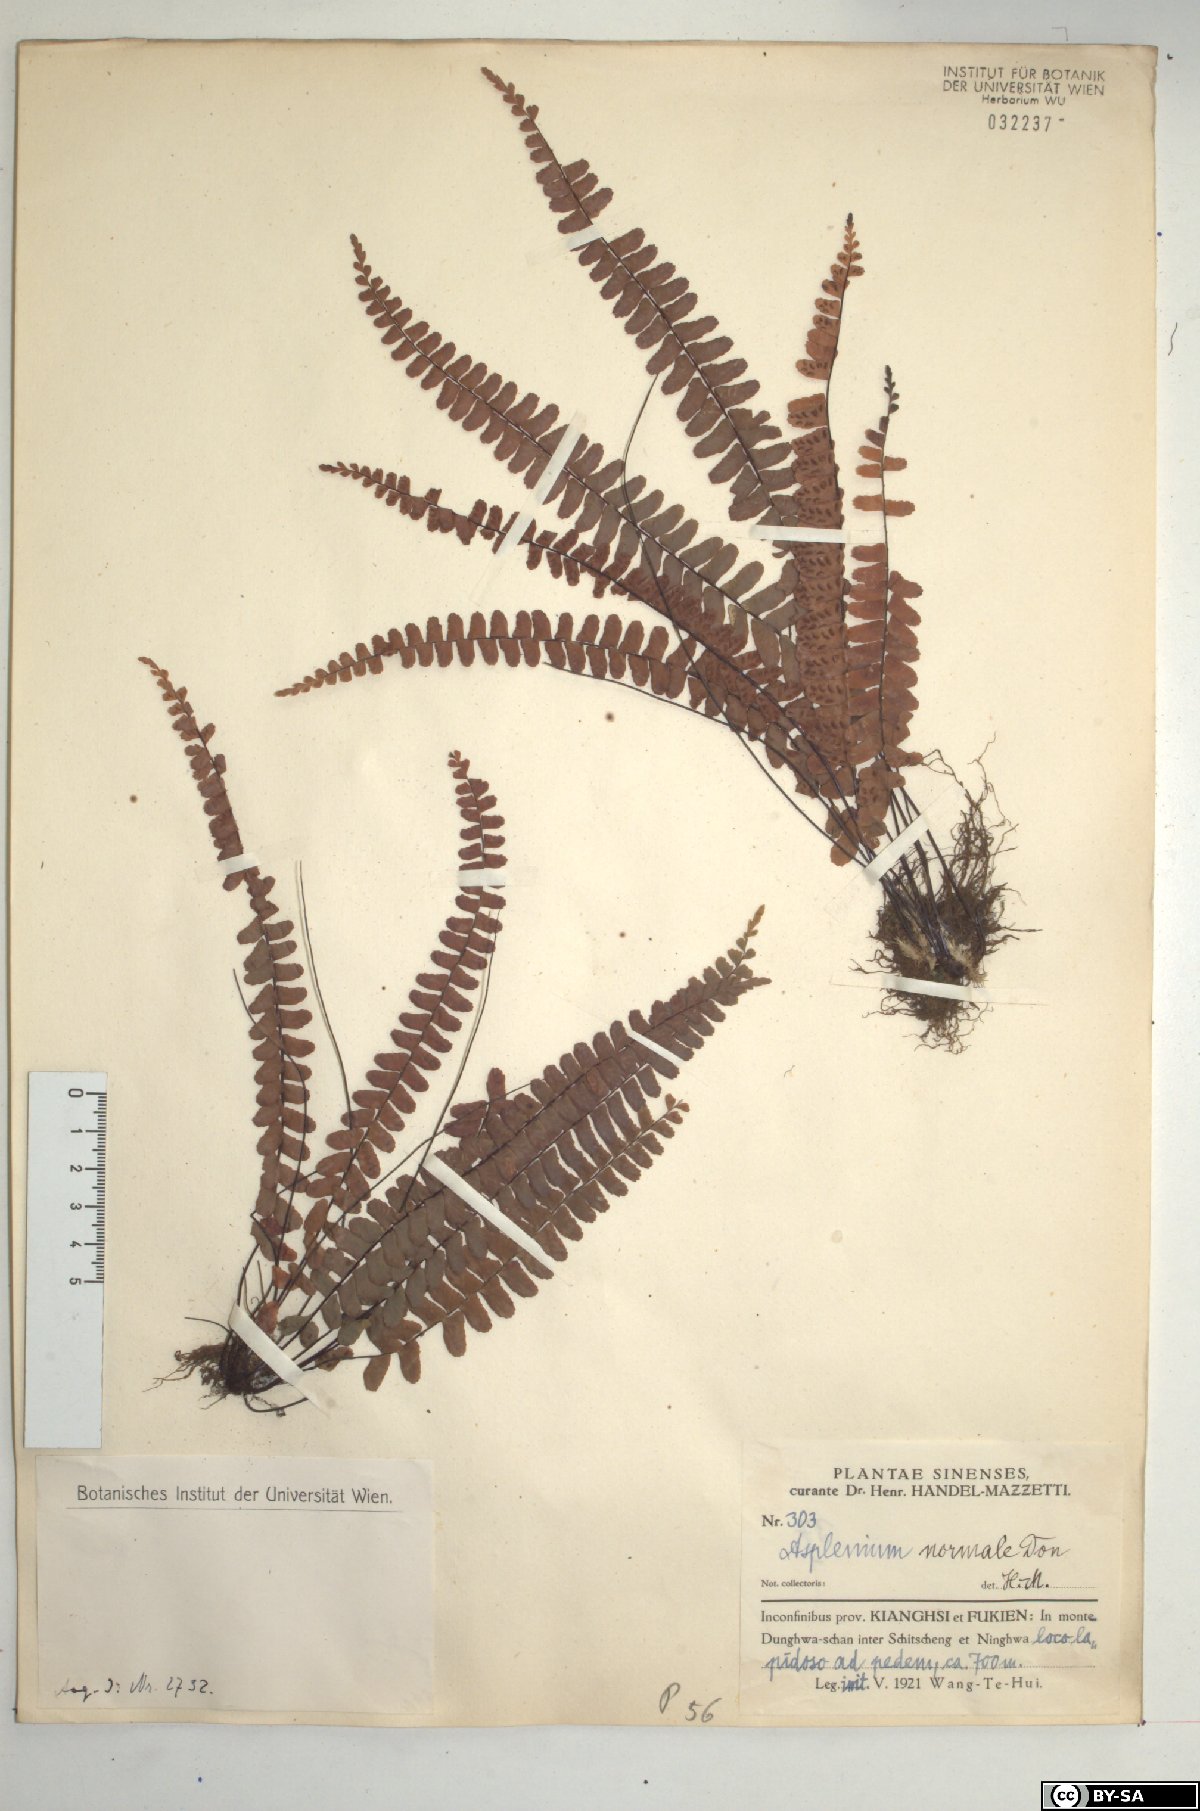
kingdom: Plantae
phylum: Tracheophyta
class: Polypodiopsida
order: Polypodiales
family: Aspleniaceae
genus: Asplenium
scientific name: Asplenium normale
